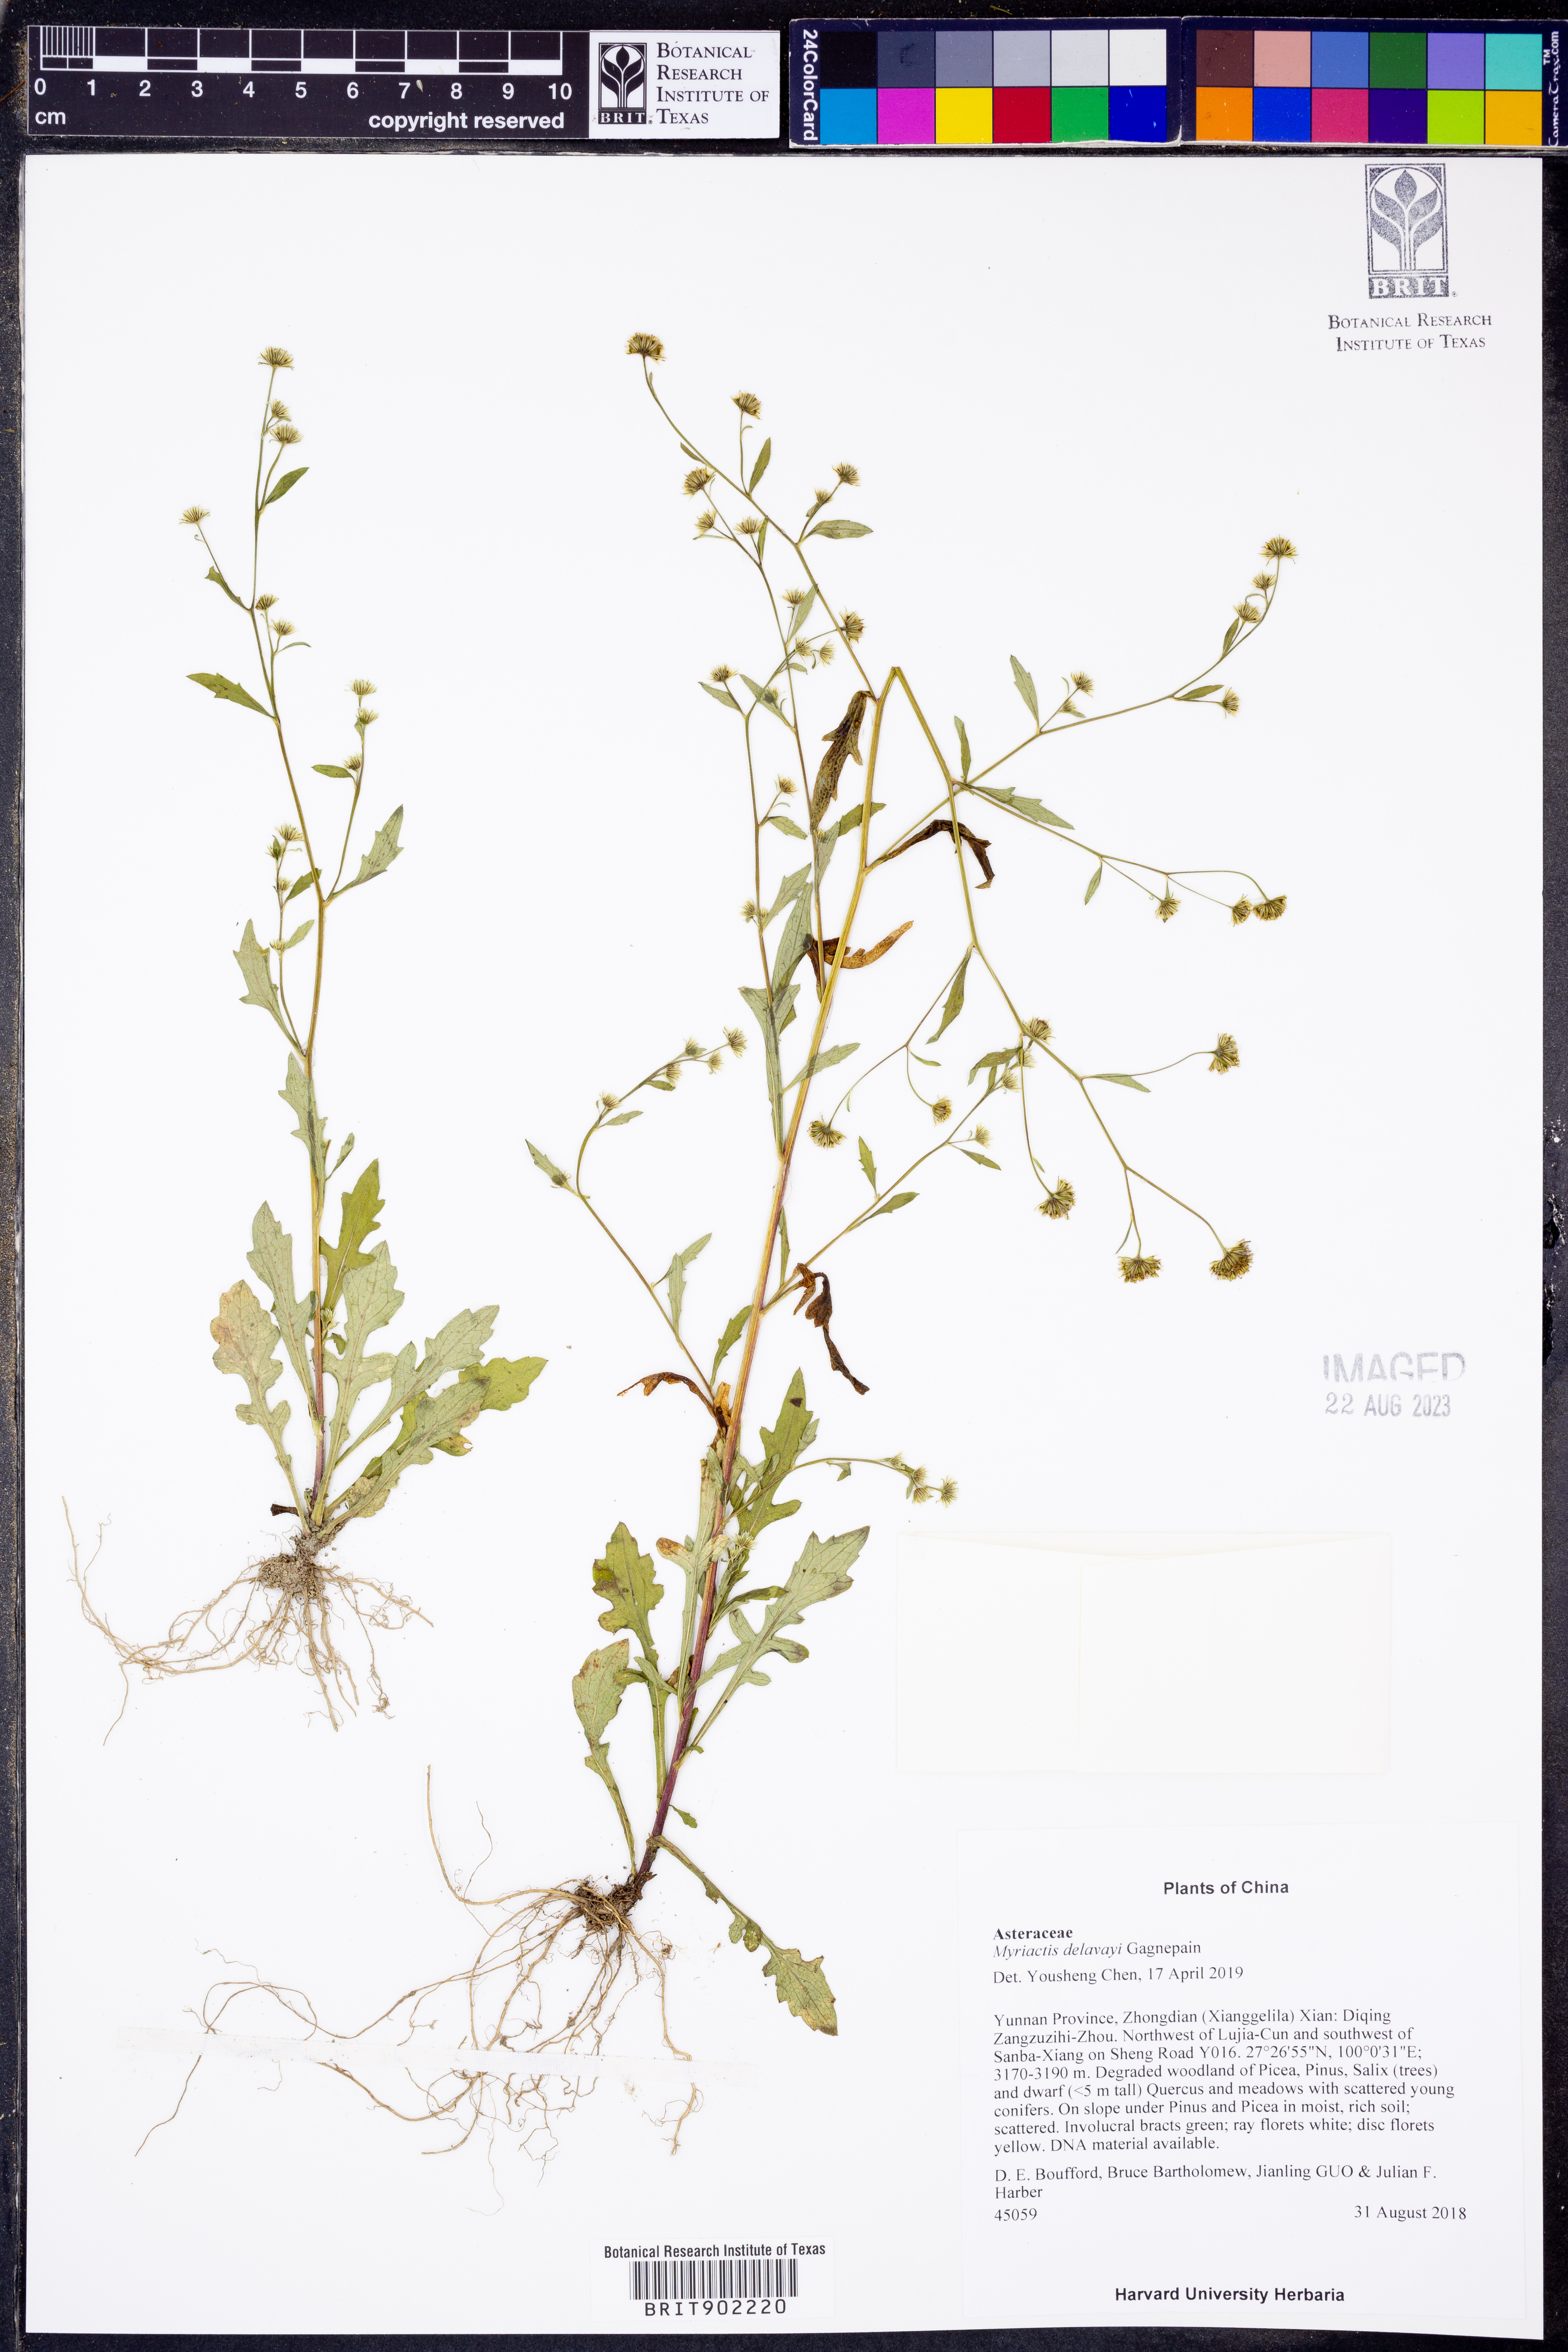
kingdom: Plantae
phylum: Tracheophyta
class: Magnoliopsida
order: Asterales
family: Asteraceae
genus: Myriactis
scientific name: Myriactis
